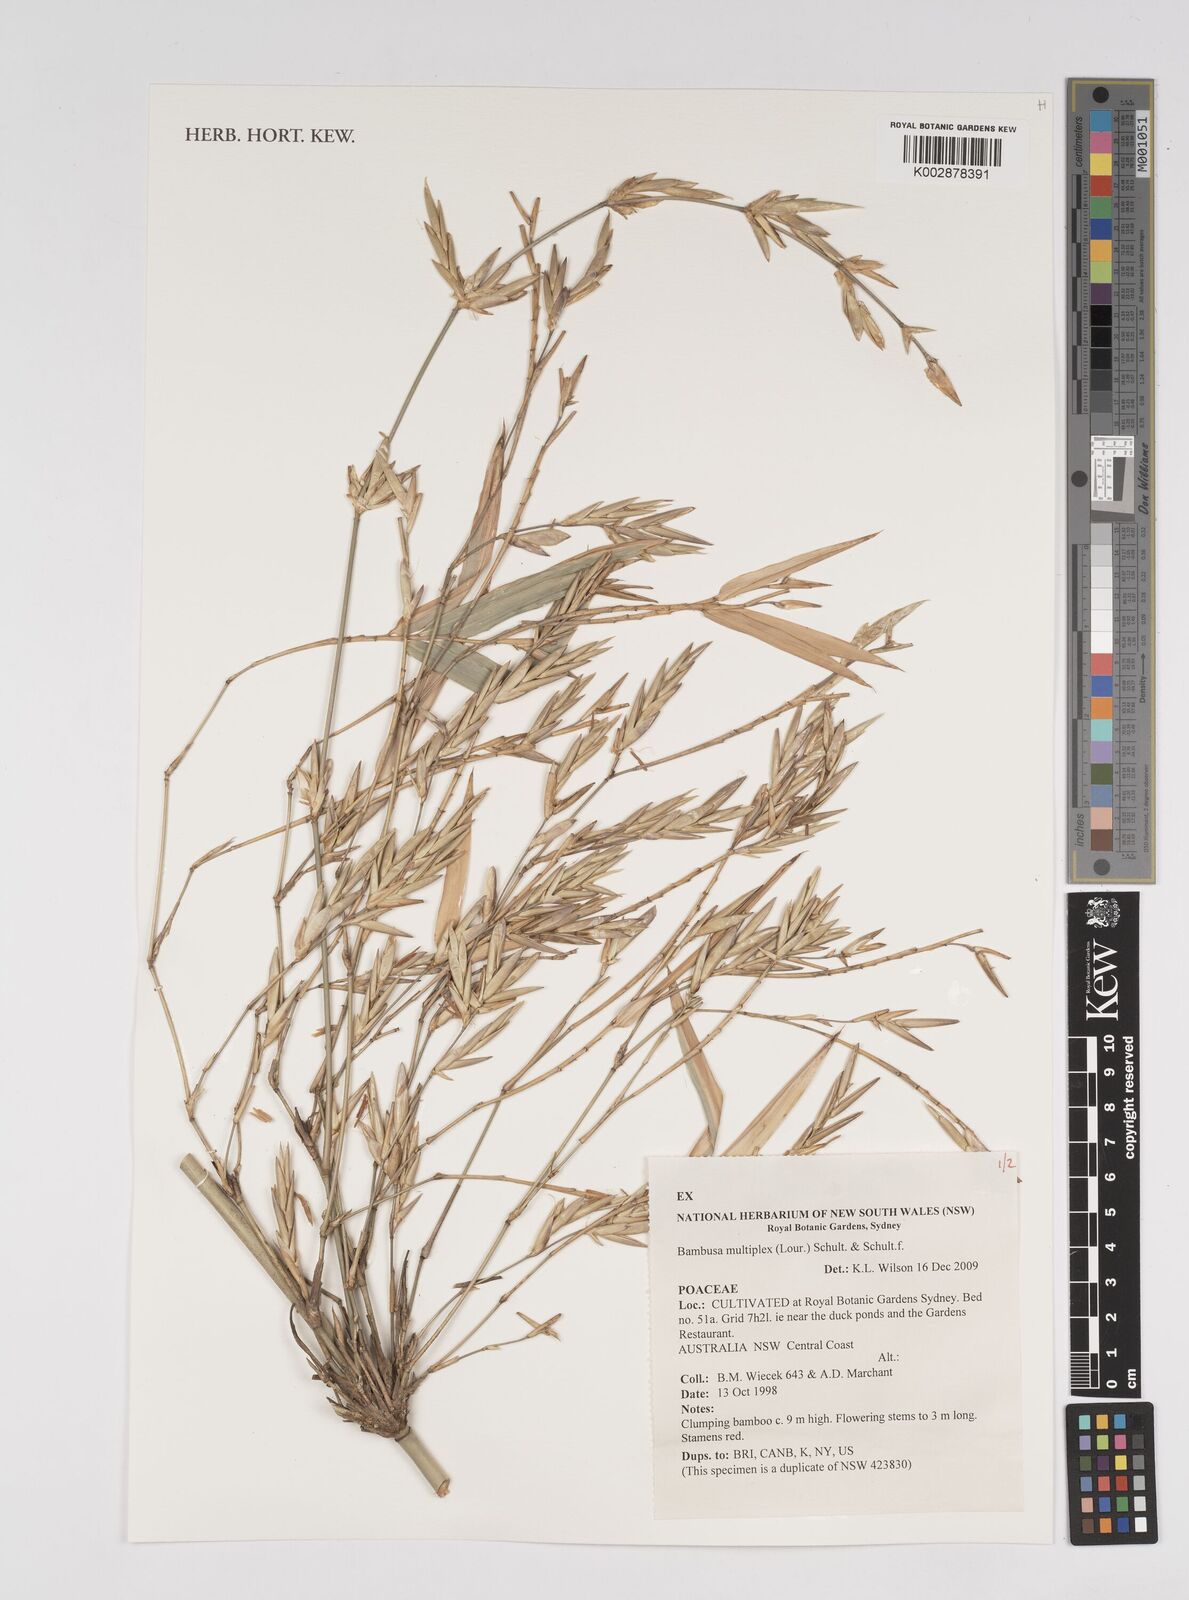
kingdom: Plantae
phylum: Tracheophyta
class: Liliopsida
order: Poales
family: Poaceae
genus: Bambusa
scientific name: Bambusa multiplex
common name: Hedge bamboo
